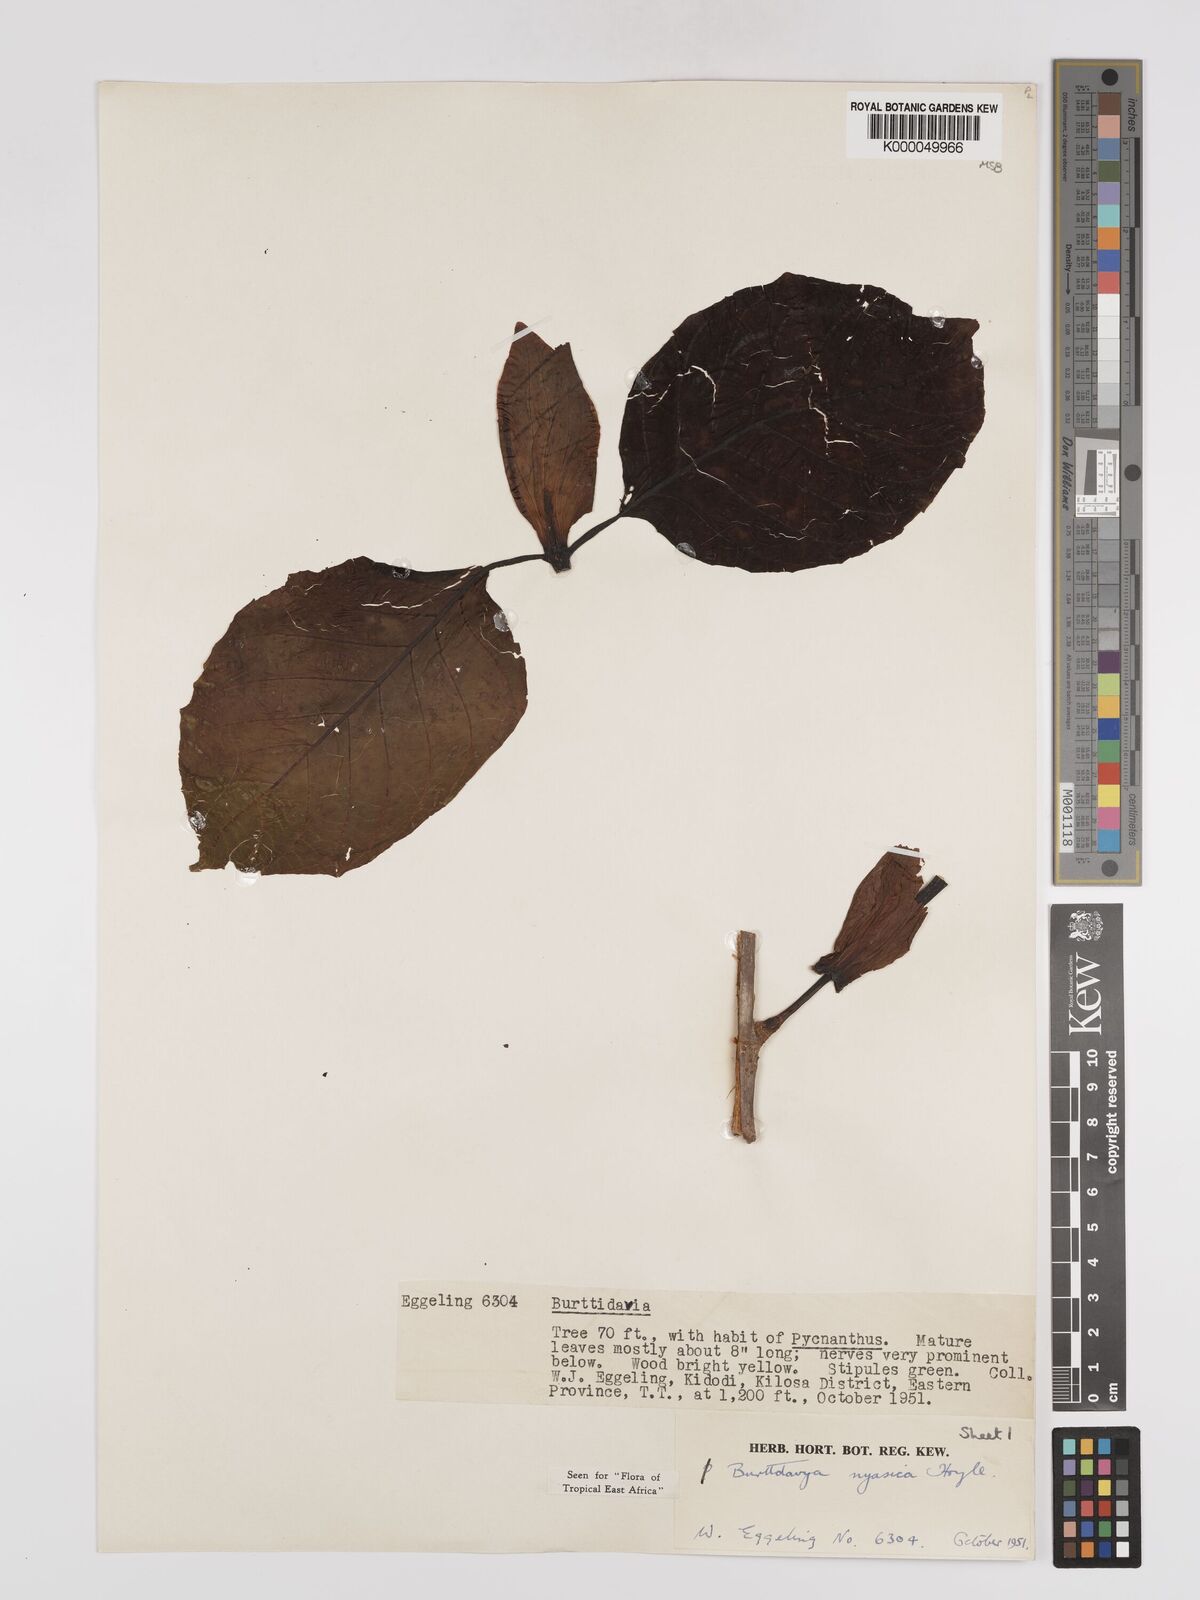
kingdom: Plantae
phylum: Tracheophyta
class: Magnoliopsida
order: Gentianales
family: Rubiaceae
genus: Nauclea
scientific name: Nauclea
